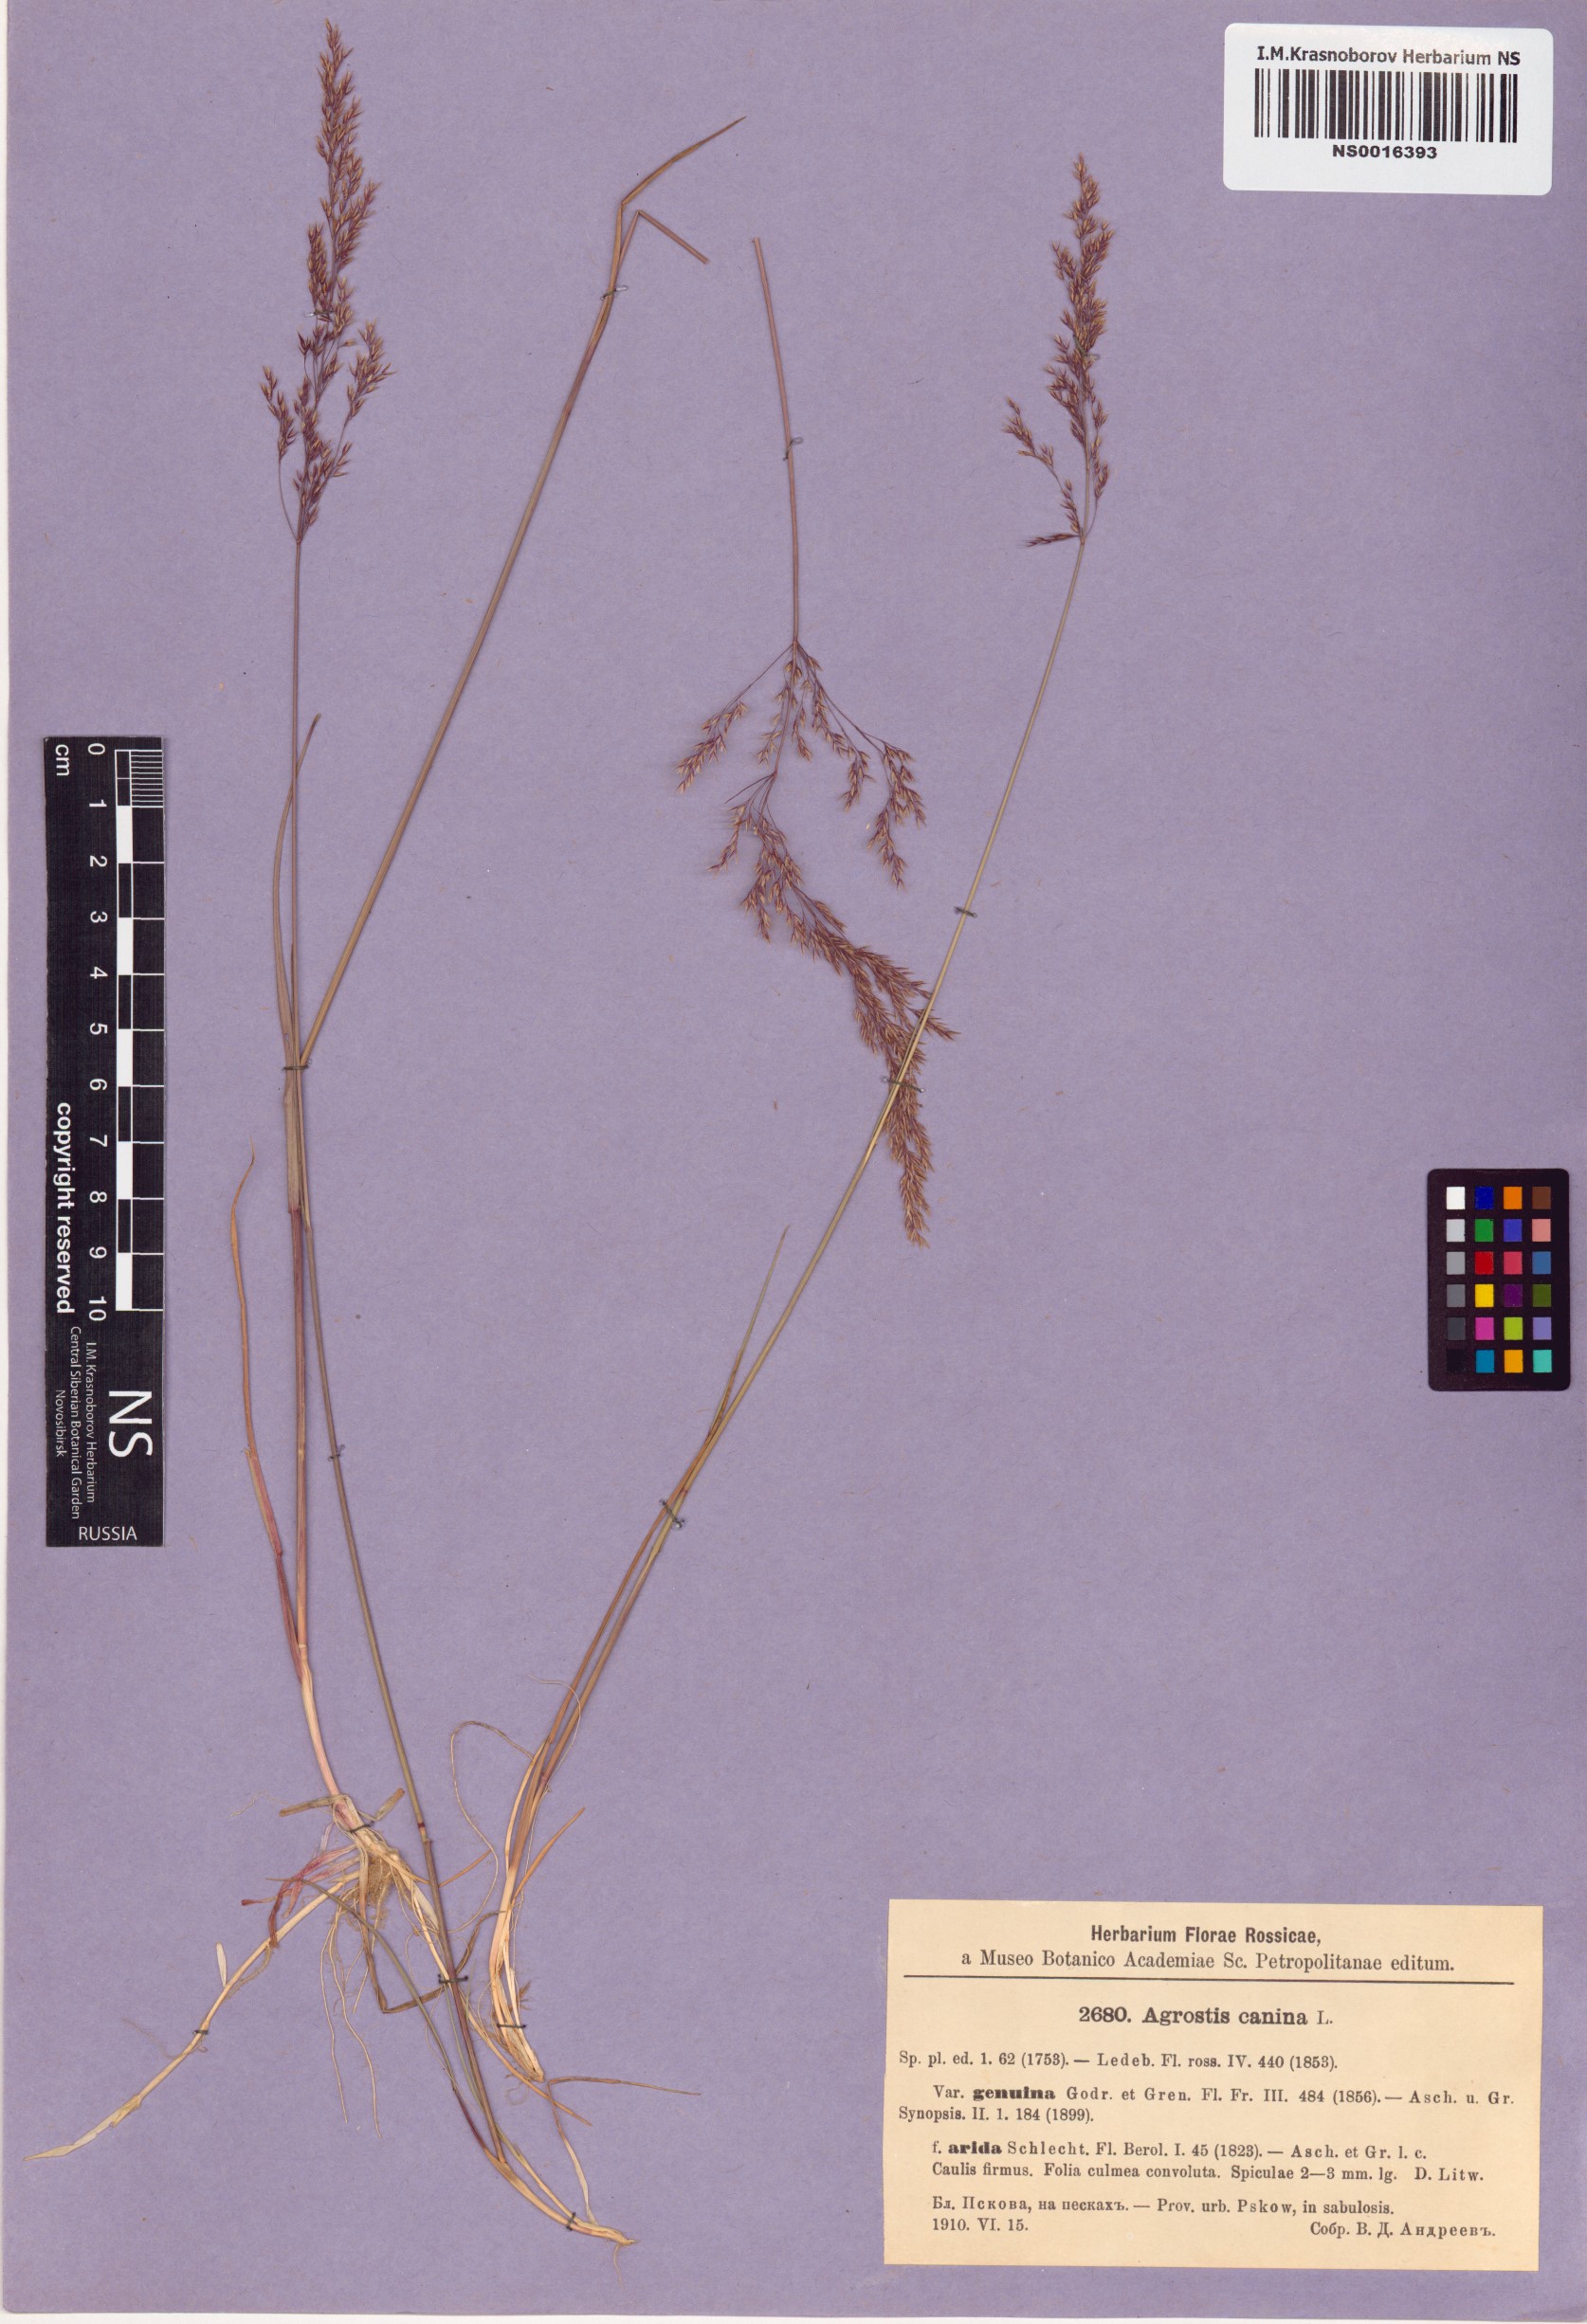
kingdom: Plantae
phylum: Tracheophyta
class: Liliopsida
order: Poales
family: Poaceae
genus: Agrostis
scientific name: Agrostis canina
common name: Velvet bent
